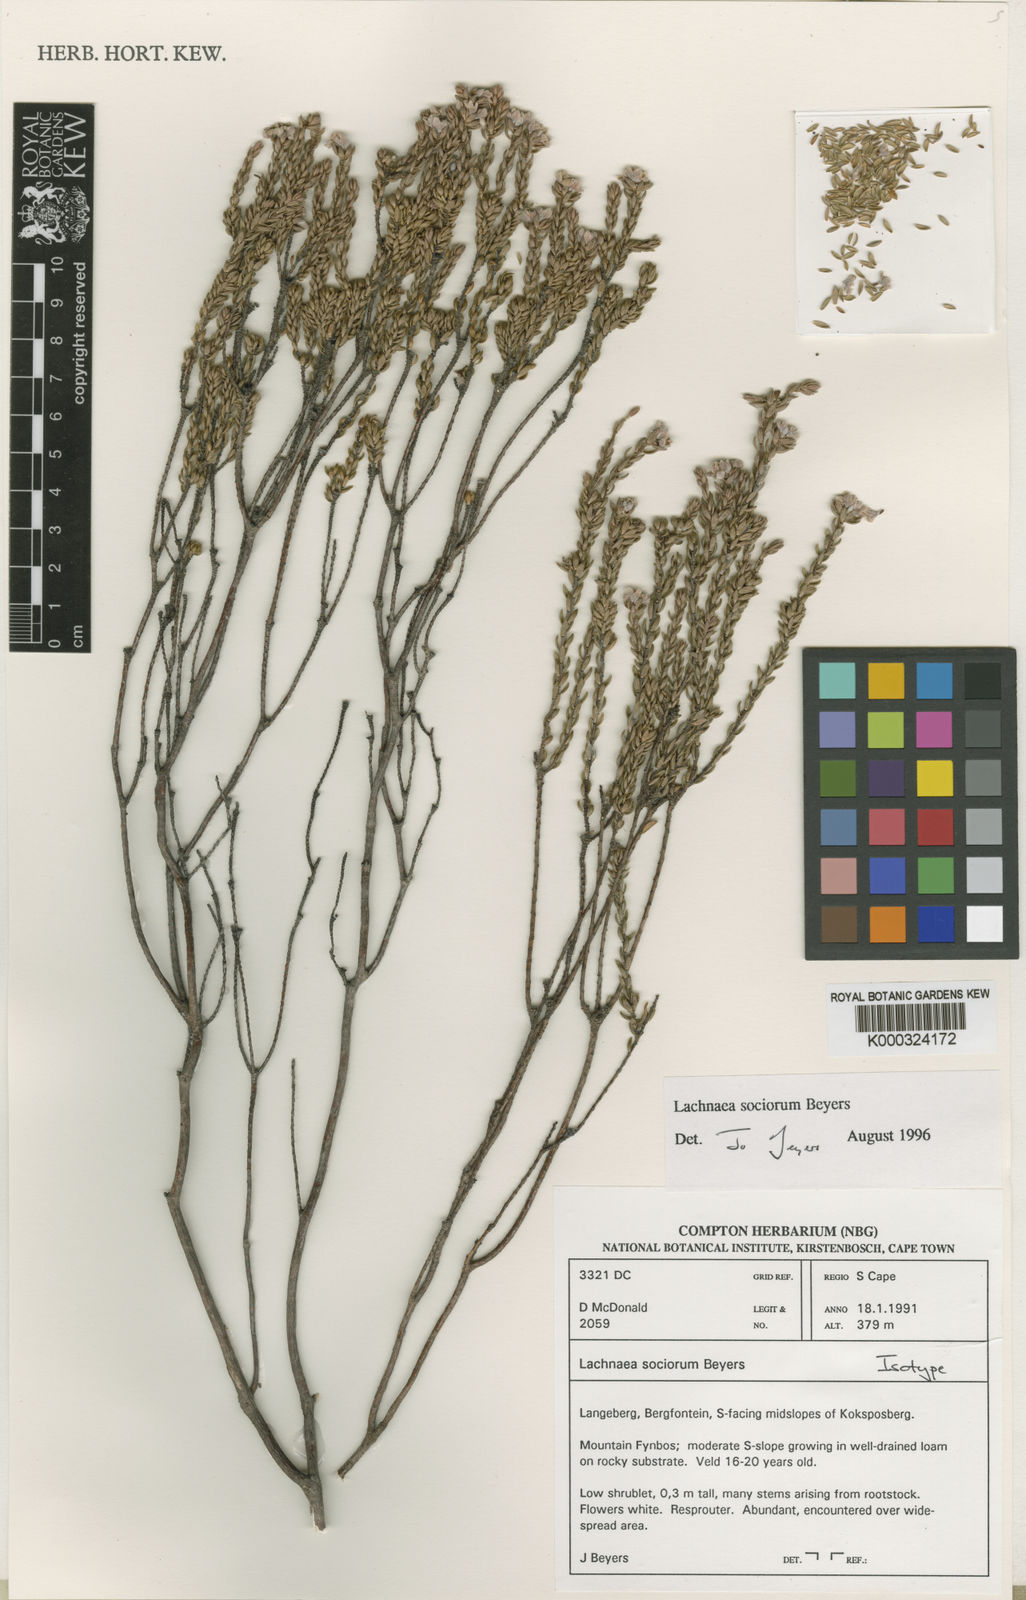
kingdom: Plantae
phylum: Tracheophyta
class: Magnoliopsida
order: Malvales
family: Thymelaeaceae
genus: Lachnaea
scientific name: Lachnaea sociorum
